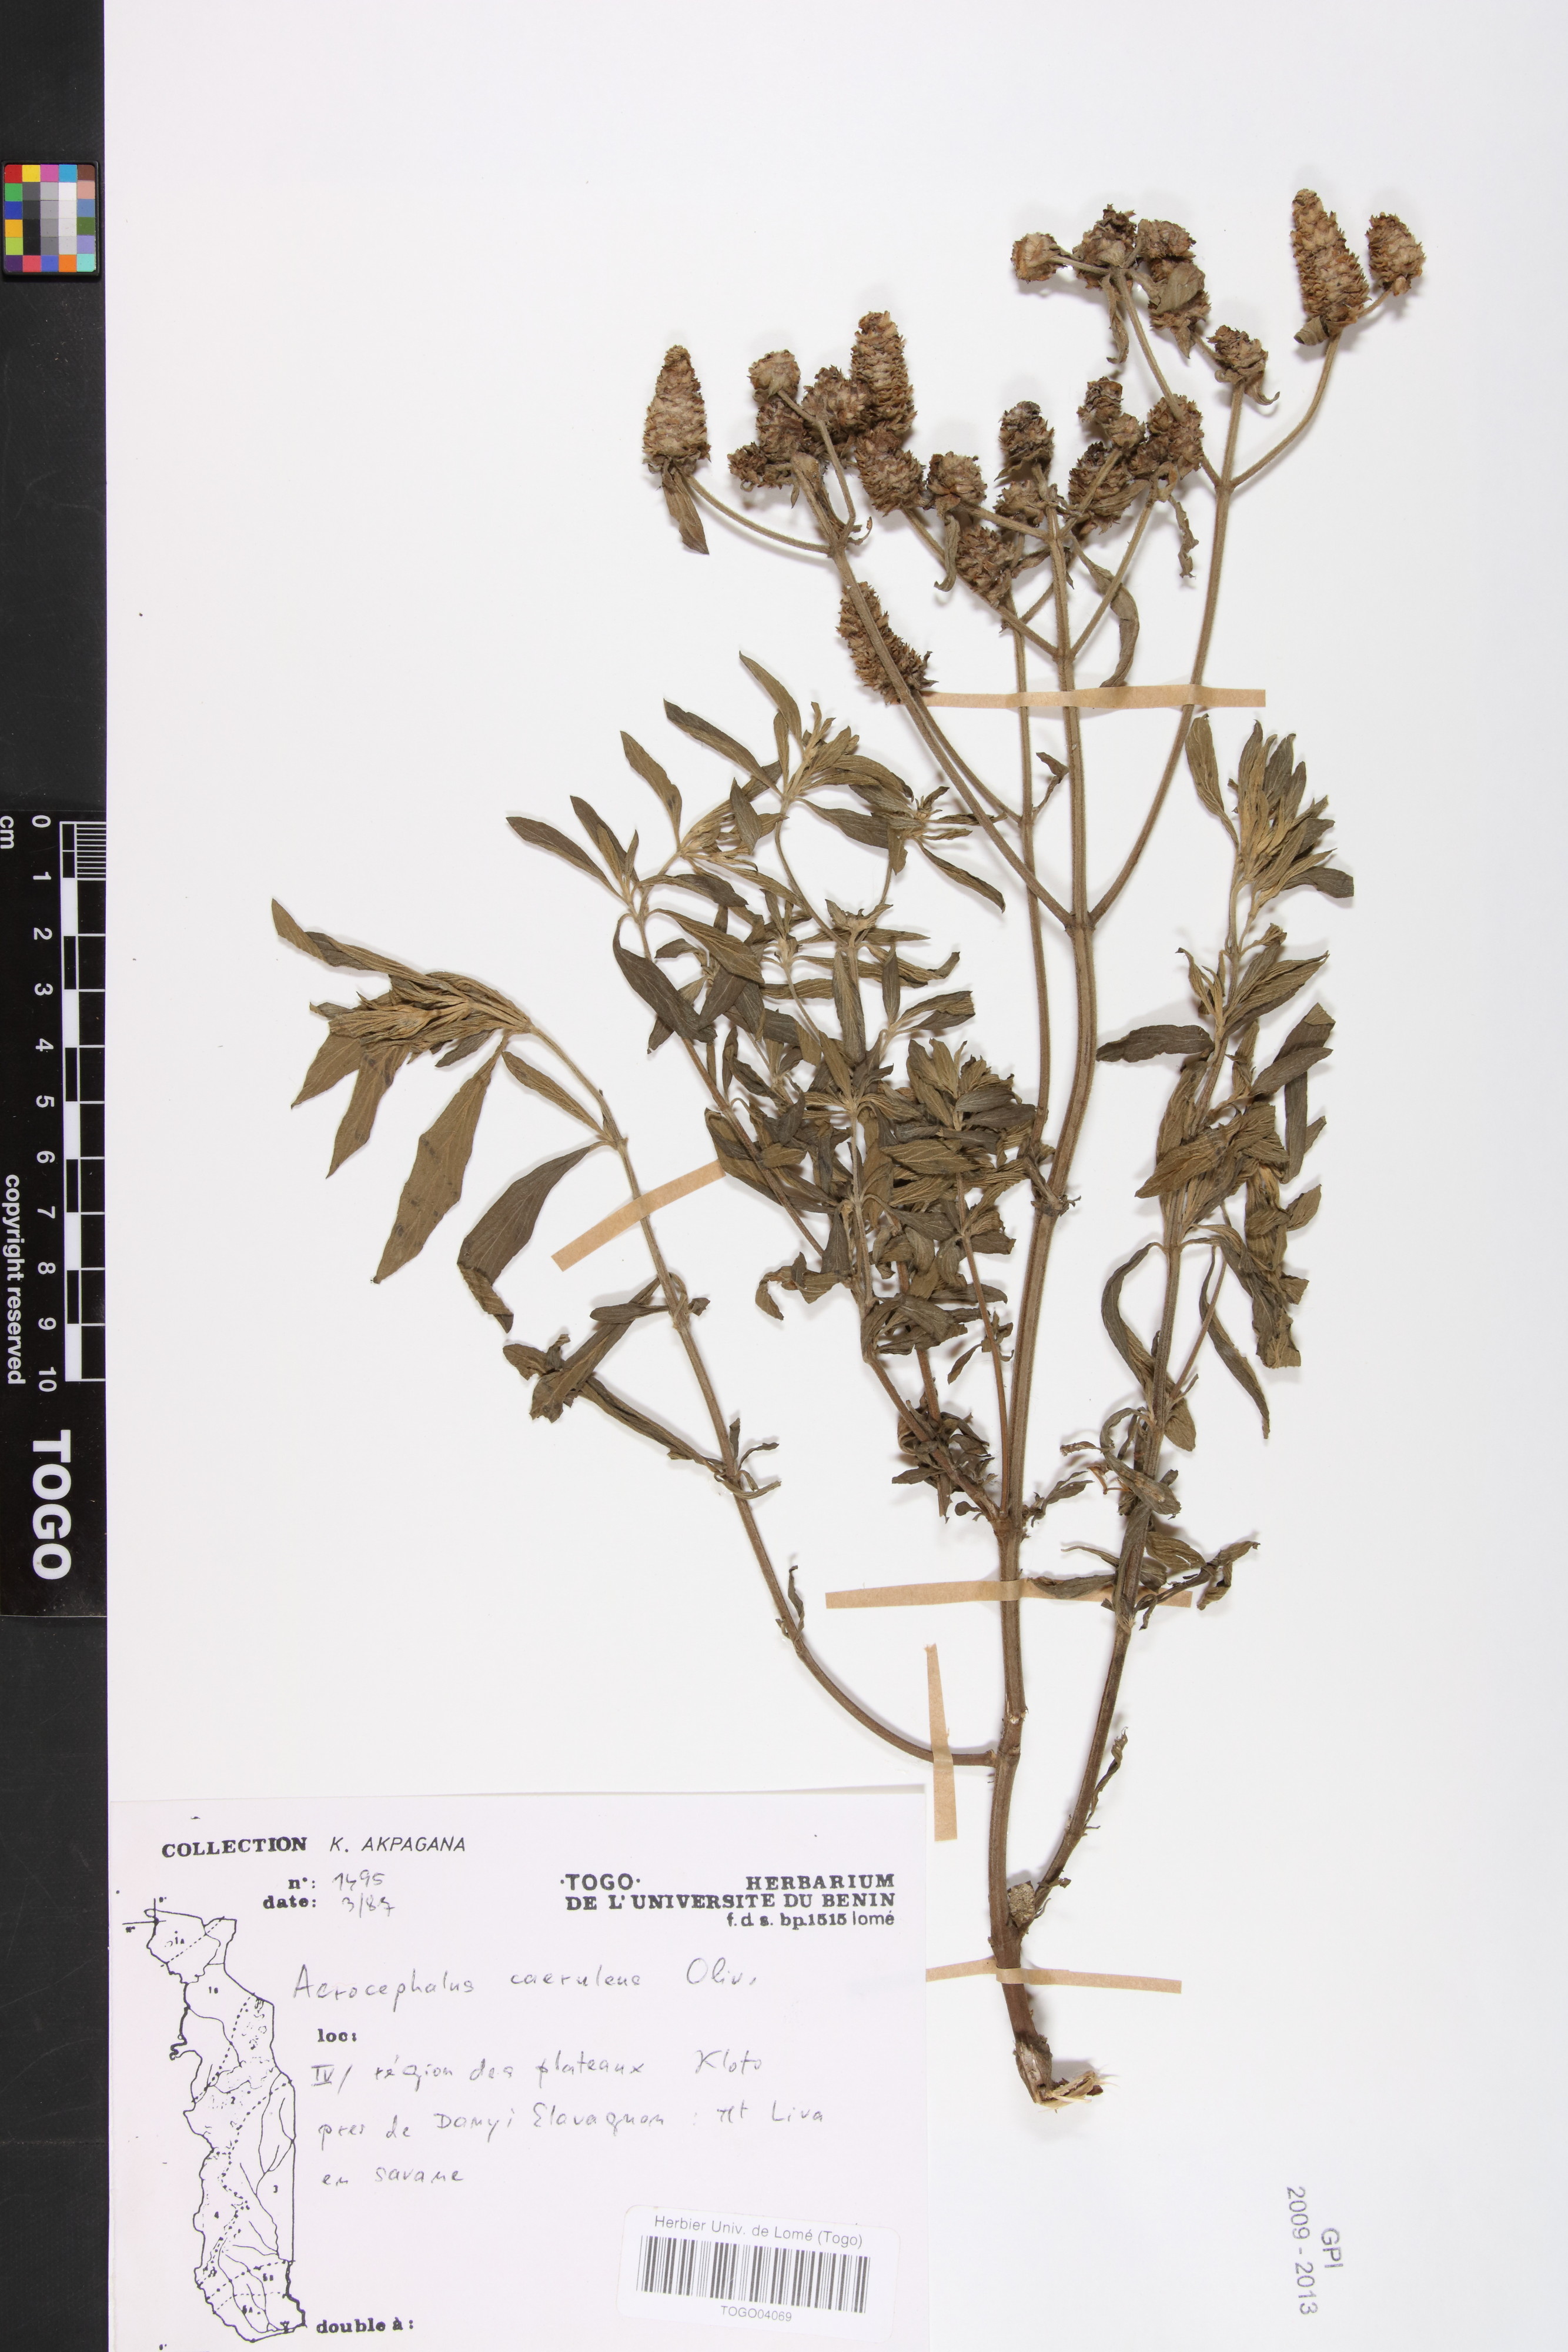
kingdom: Plantae
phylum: Tracheophyta
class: Magnoliopsida
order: Lamiales
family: Lamiaceae
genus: Haumaniastrum
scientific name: Haumaniastrum caeruleum
